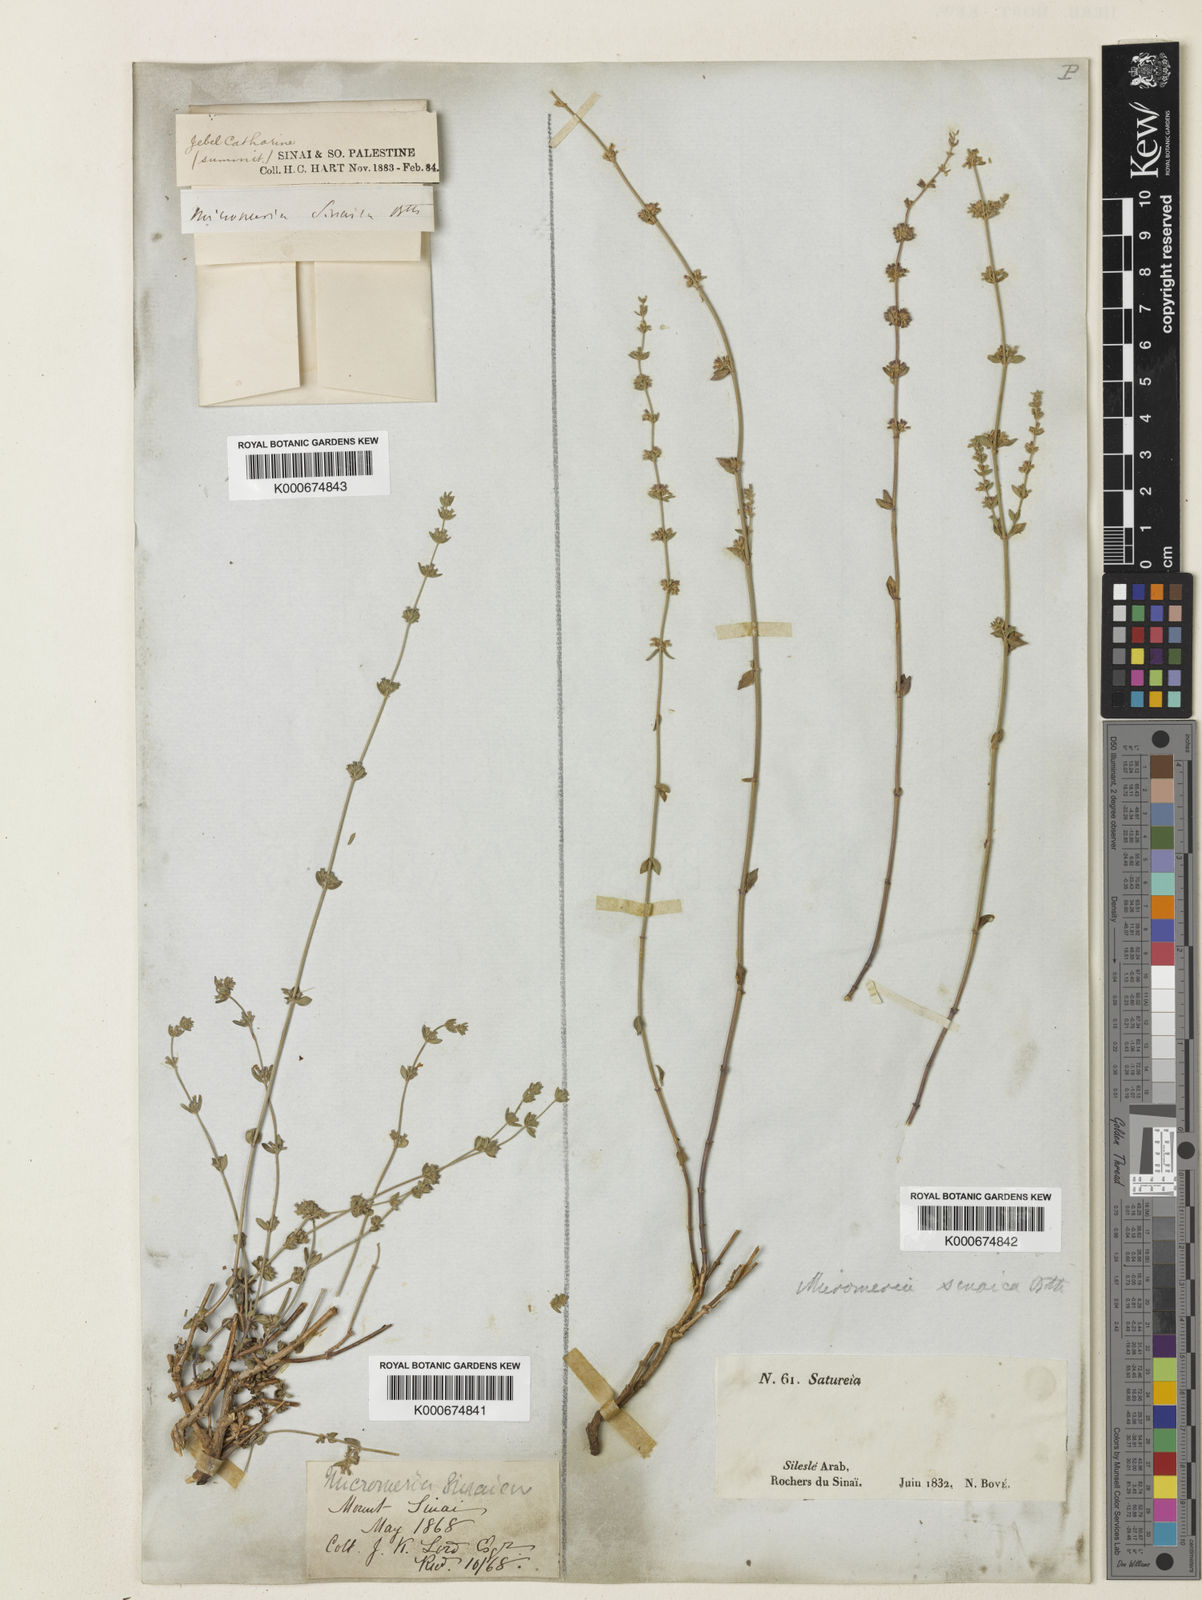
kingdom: Plantae
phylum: Tracheophyta
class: Magnoliopsida
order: Lamiales
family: Lamiaceae
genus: Micromeria
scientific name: Micromeria sinaica
